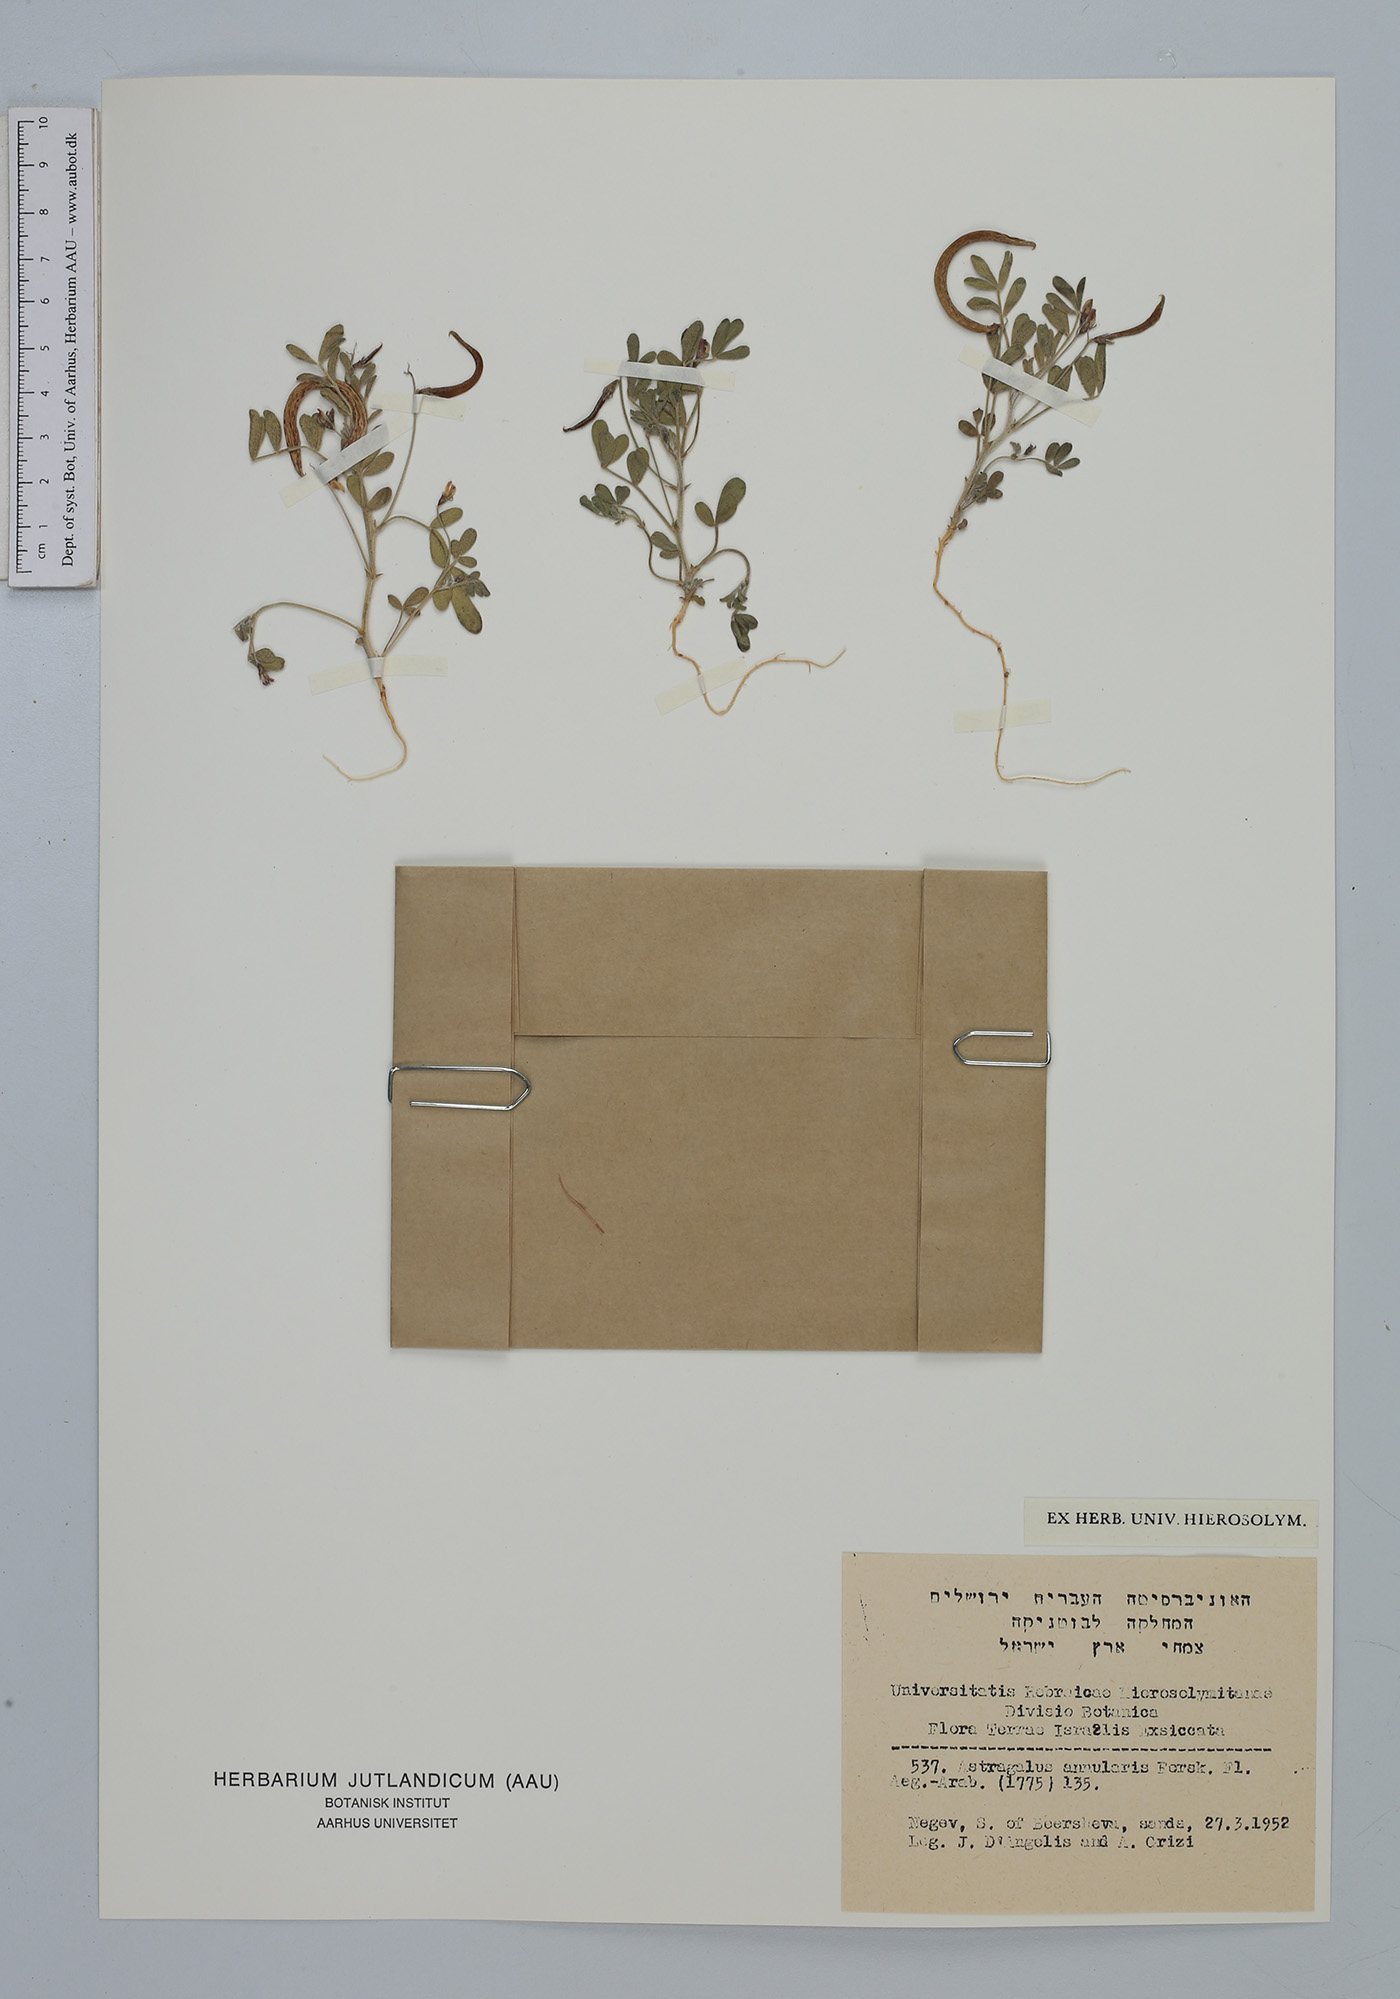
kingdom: Plantae
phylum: Tracheophyta
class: Magnoliopsida
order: Fabales
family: Fabaceae
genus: Astragalus
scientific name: Astragalus annularis
